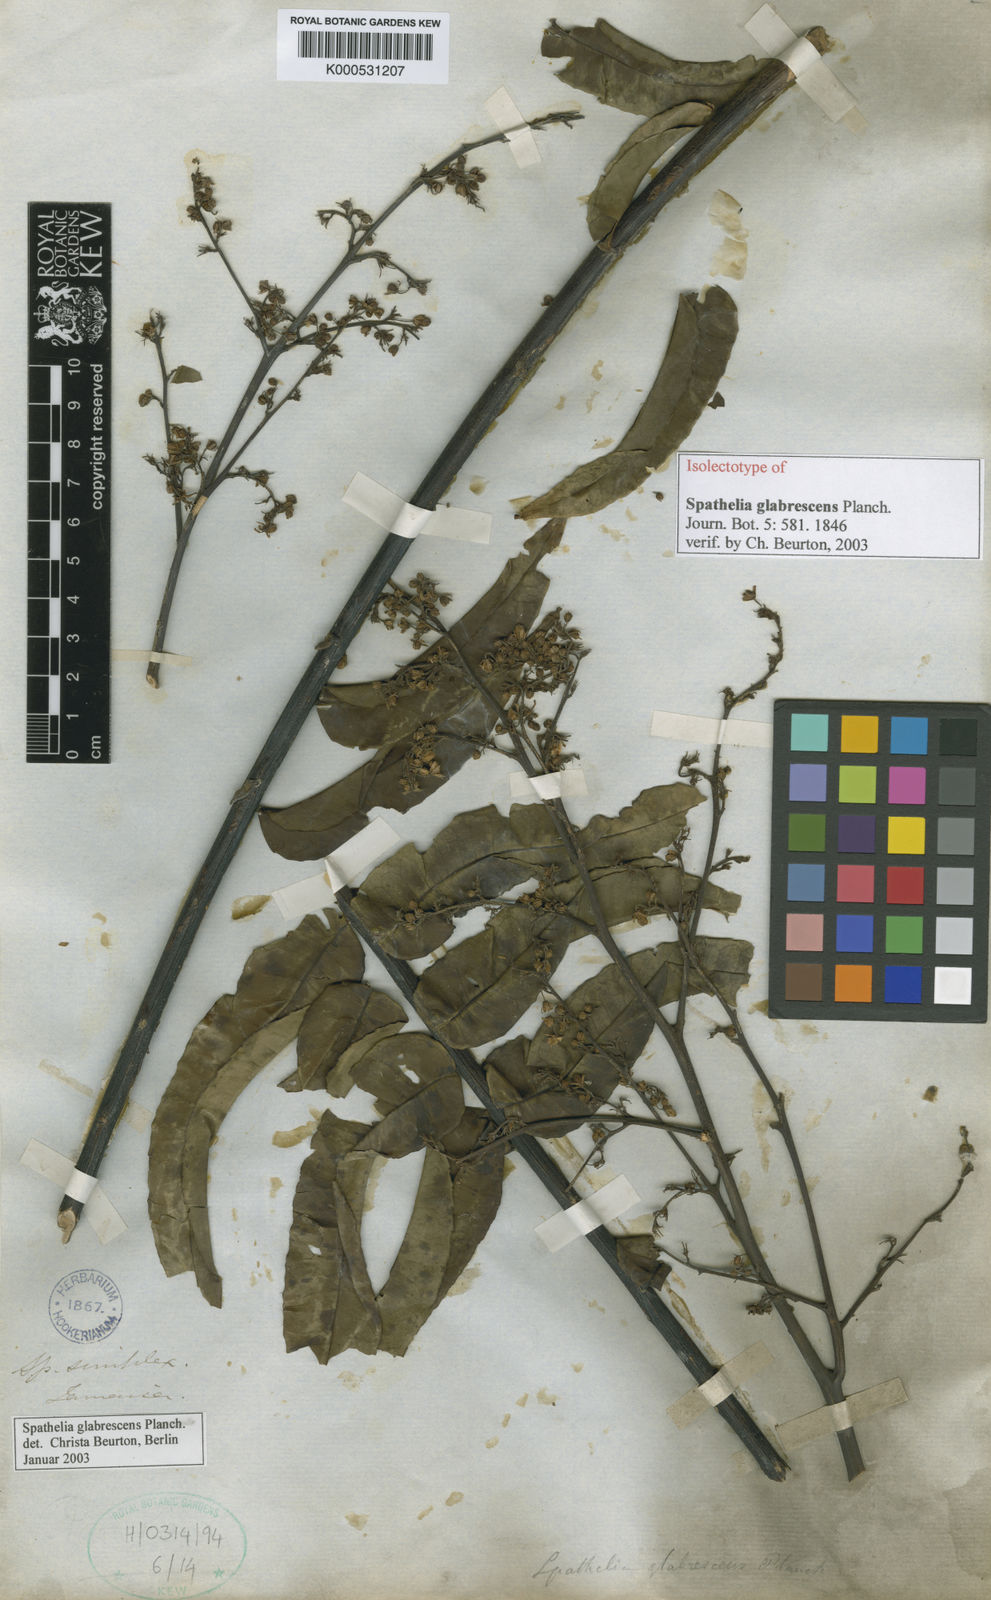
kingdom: Plantae
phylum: Tracheophyta
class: Magnoliopsida
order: Sapindales
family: Rutaceae
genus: Spathelia
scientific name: Spathelia glabrescens
